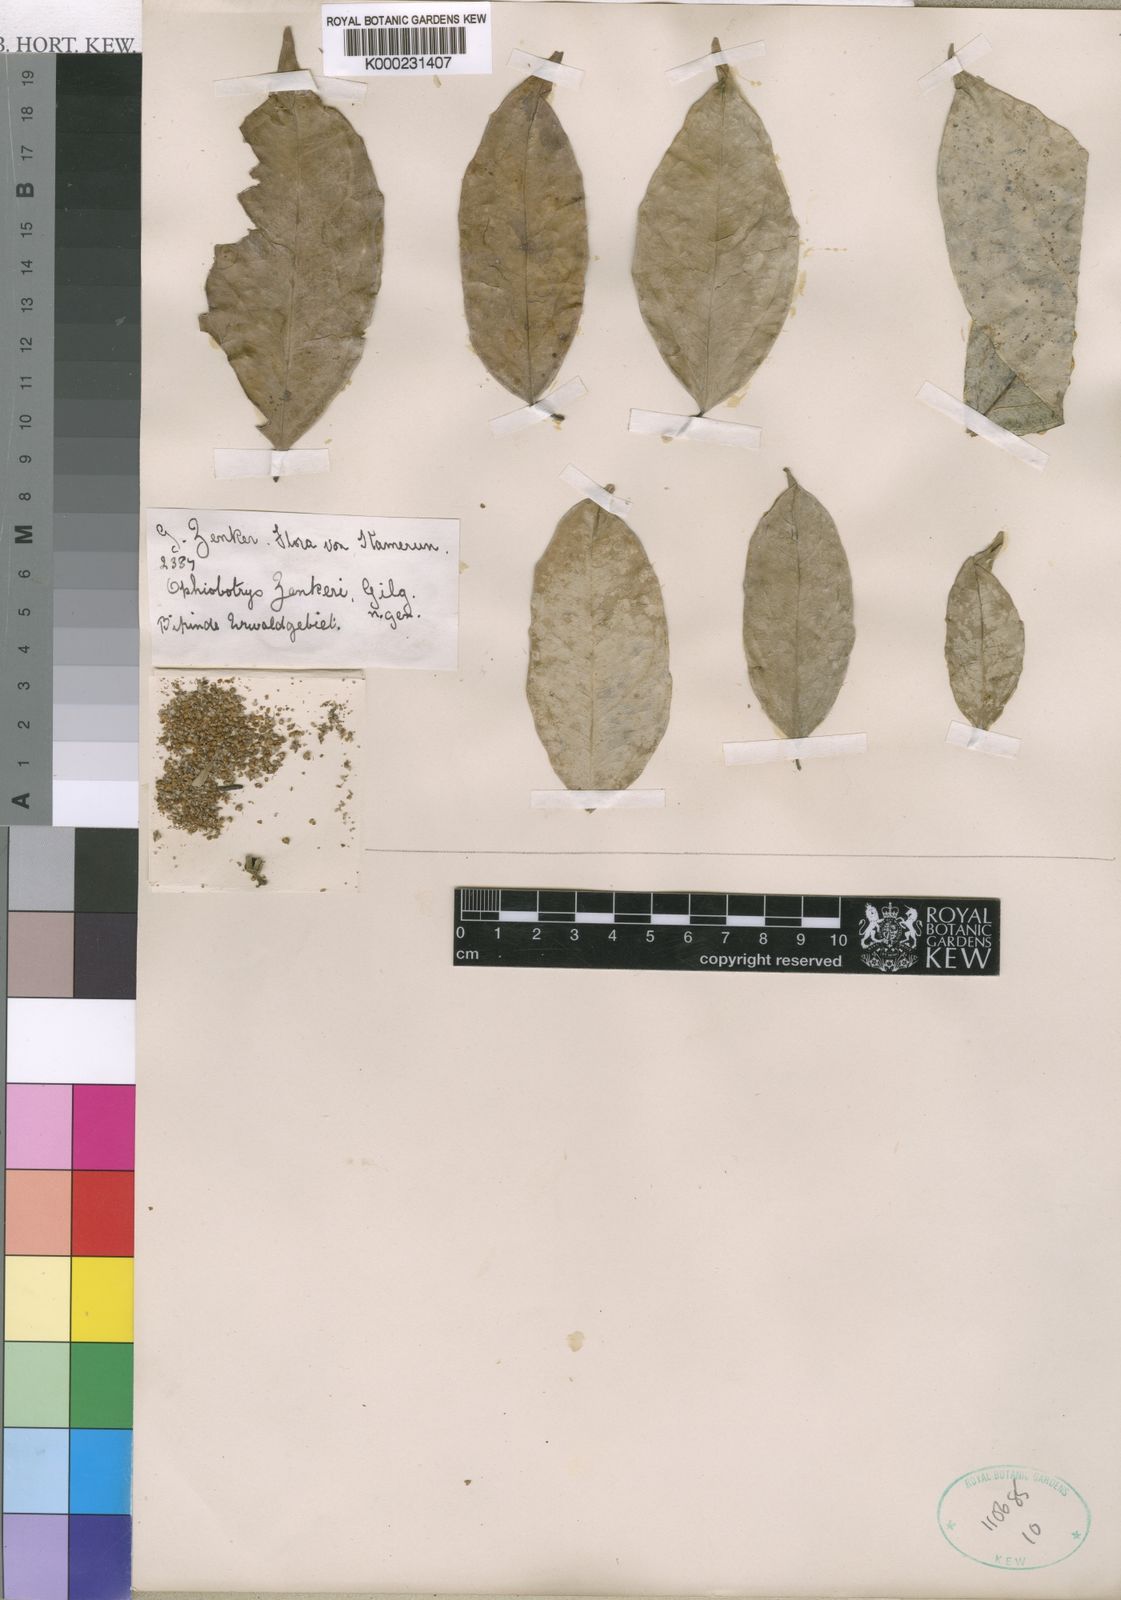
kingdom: Plantae
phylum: Tracheophyta
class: Magnoliopsida
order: Malpighiales
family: Salicaceae
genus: Ophiobotrys
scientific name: Ophiobotrys zenkeri
